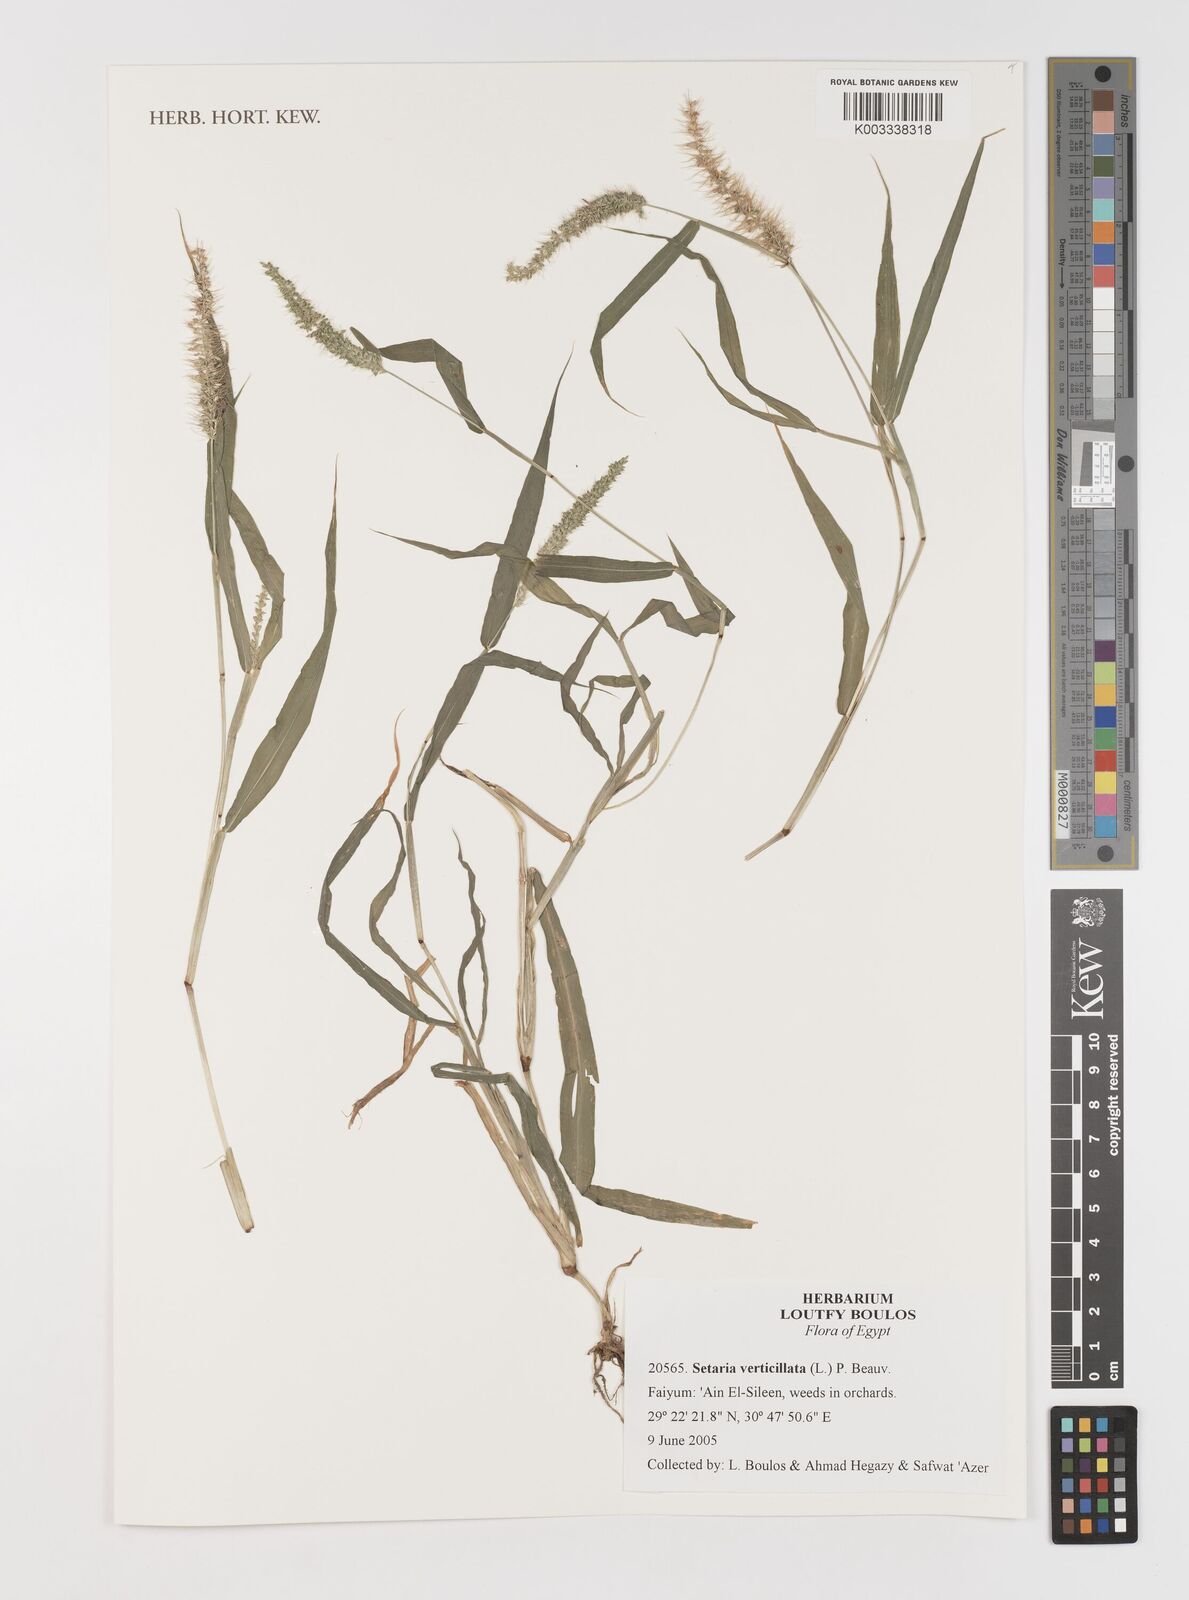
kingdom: Plantae
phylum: Tracheophyta
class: Liliopsida
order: Poales
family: Poaceae
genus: Setaria
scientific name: Setaria verticillata
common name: Hooked bristlegrass
